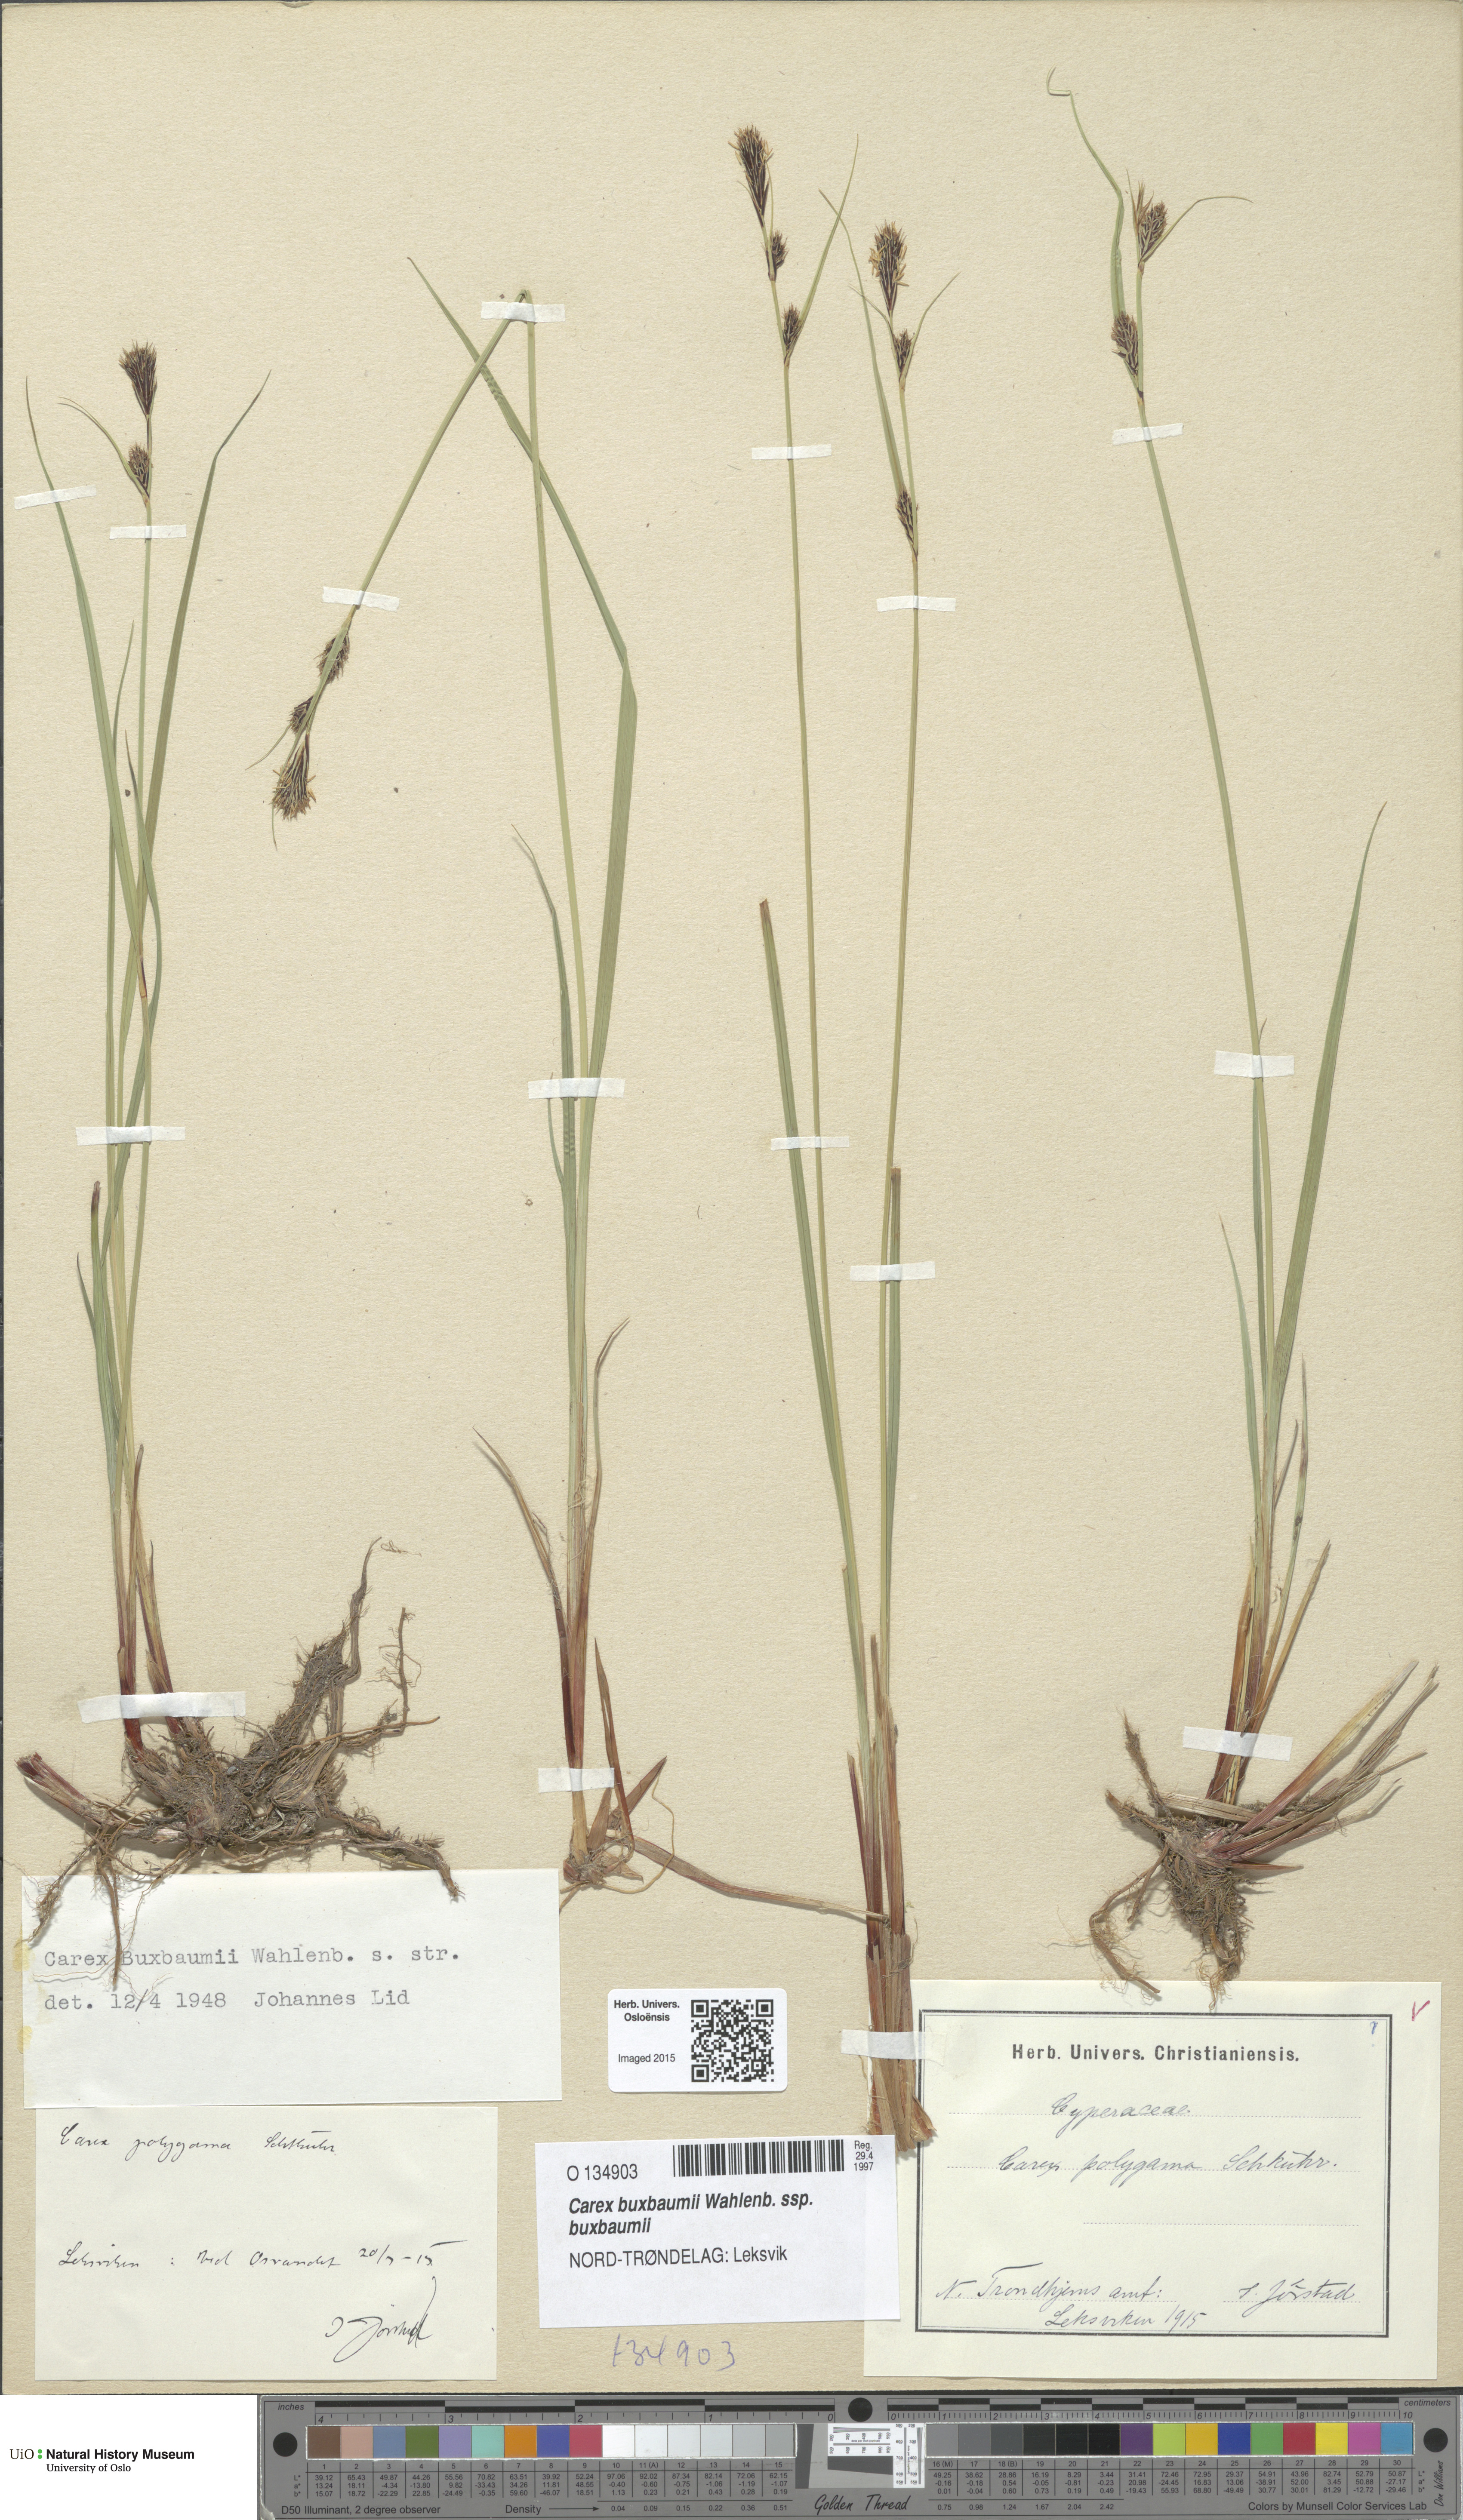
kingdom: Plantae
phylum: Tracheophyta
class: Liliopsida
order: Poales
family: Cyperaceae
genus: Carex
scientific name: Carex buxbaumii
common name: Club sedge
